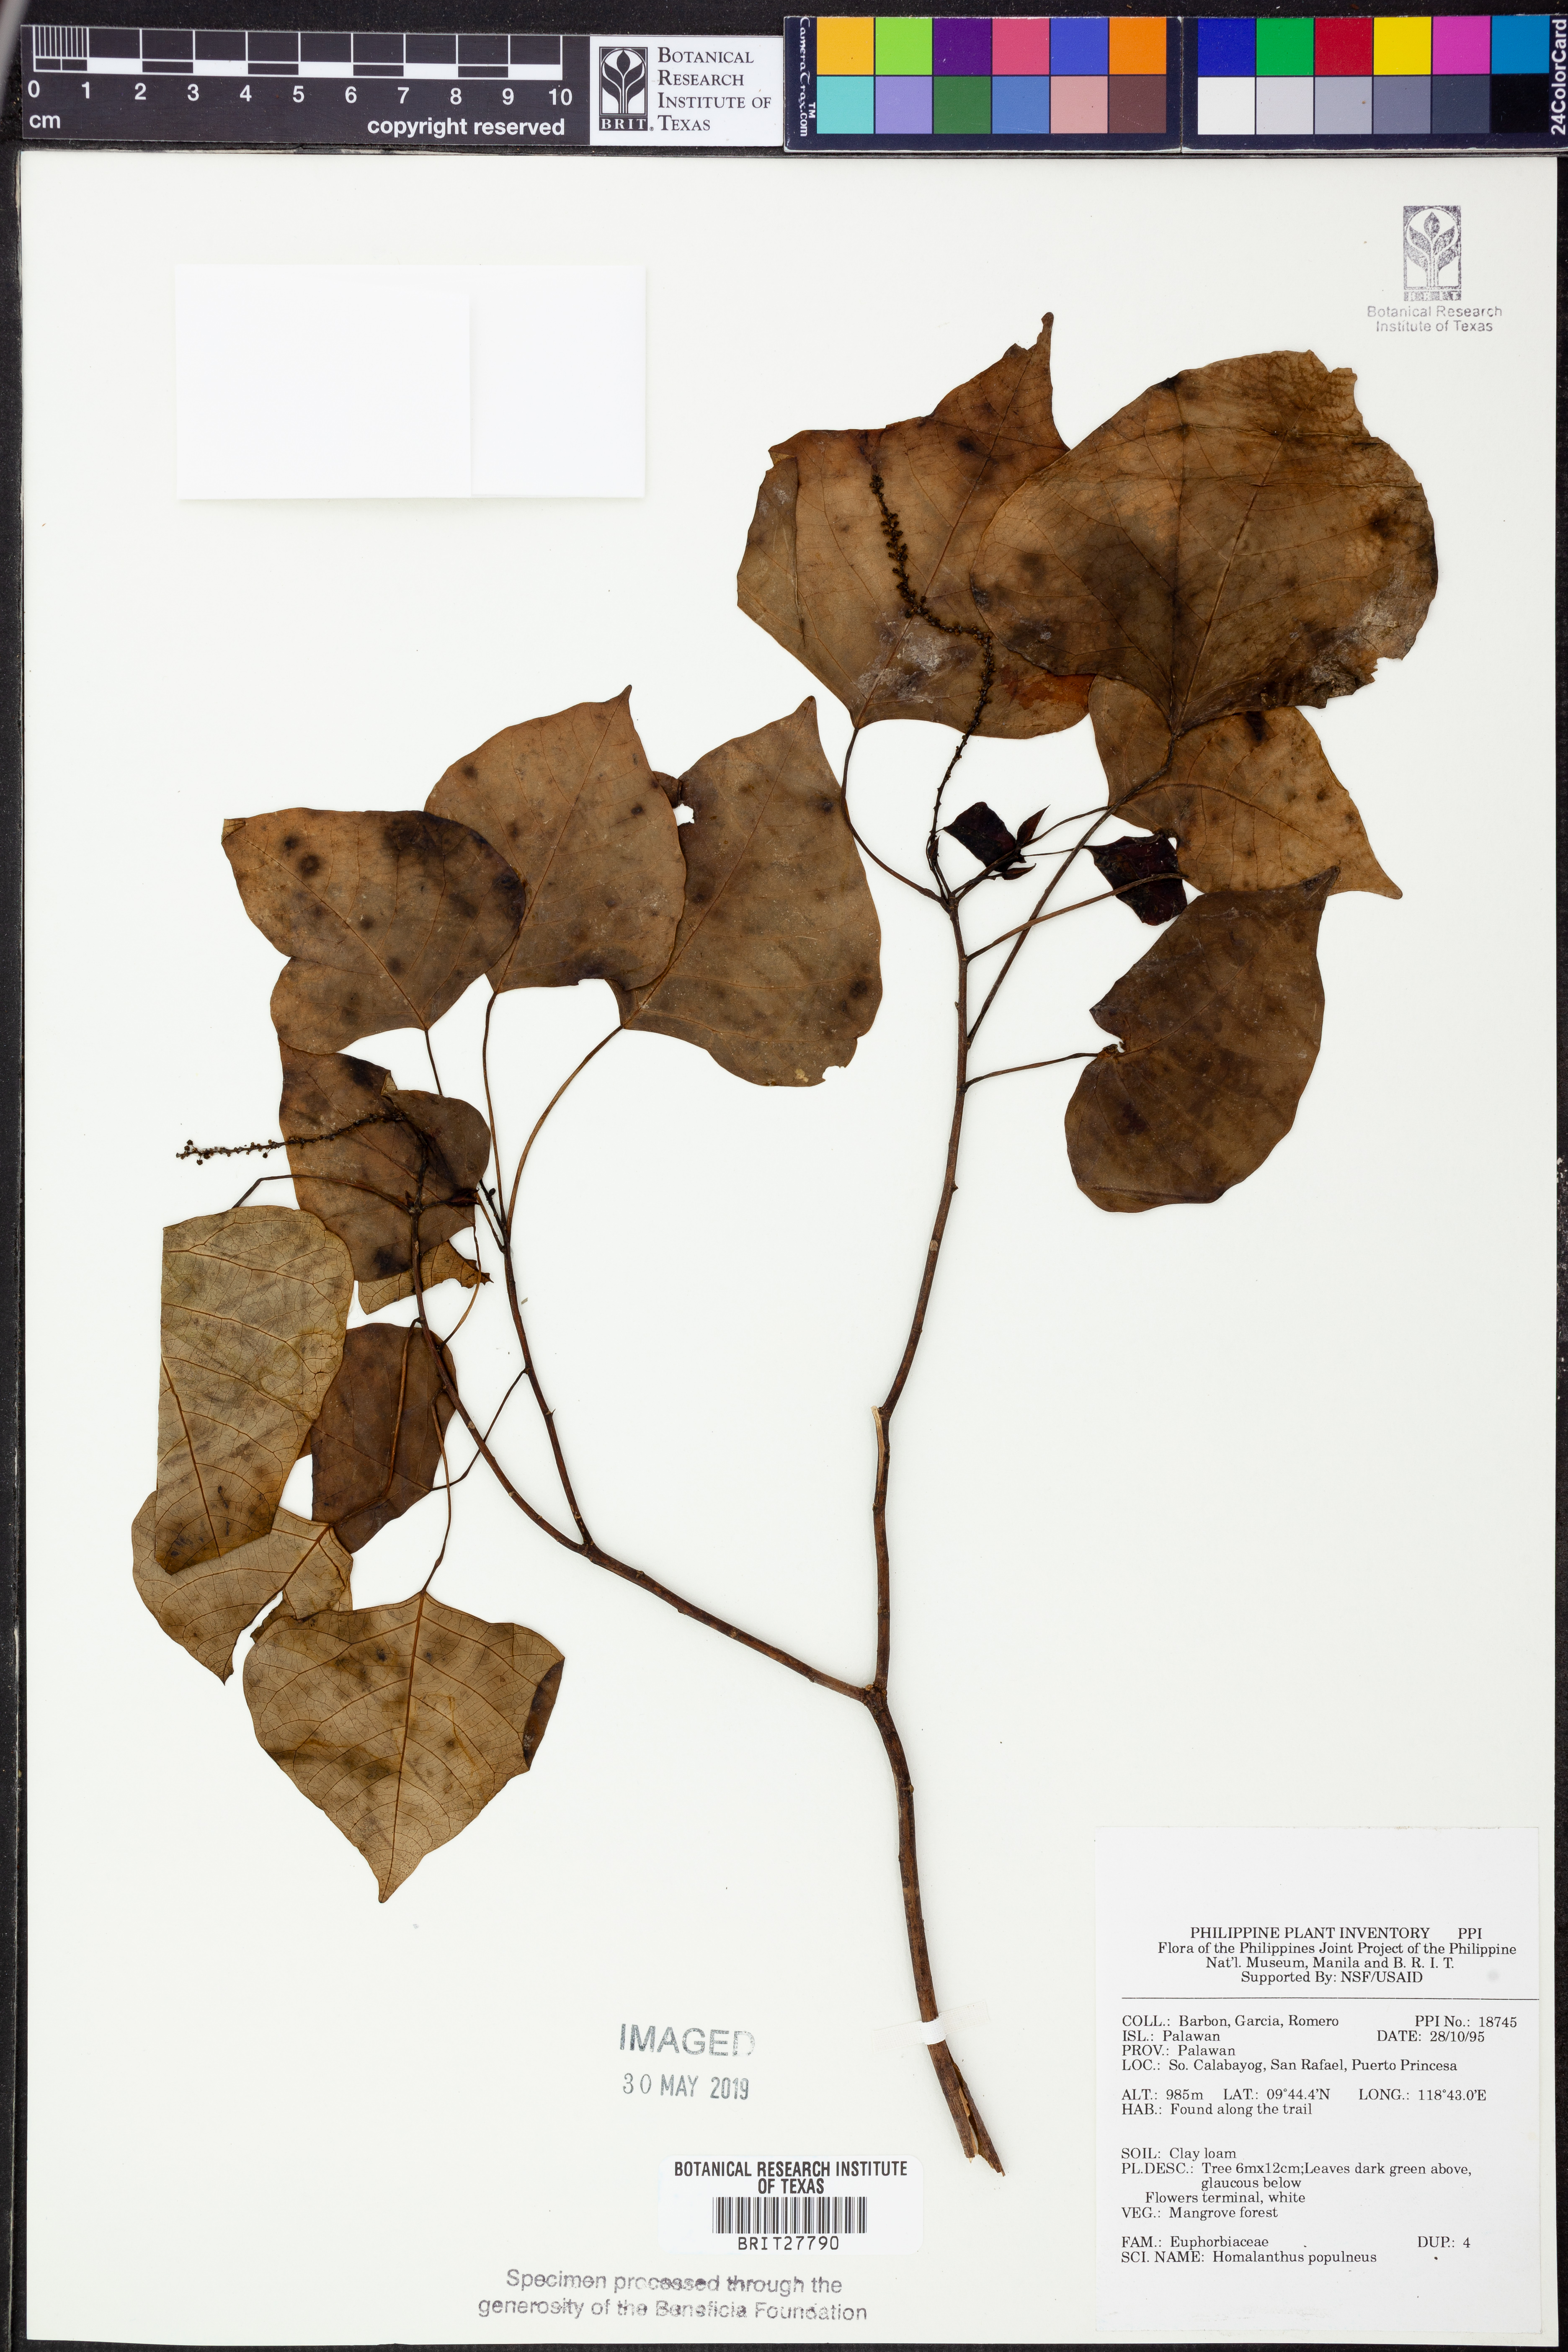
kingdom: Plantae
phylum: Tracheophyta
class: Magnoliopsida
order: Malpighiales
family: Euphorbiaceae
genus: Homalanthus
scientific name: Homalanthus populneus
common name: Spurge
